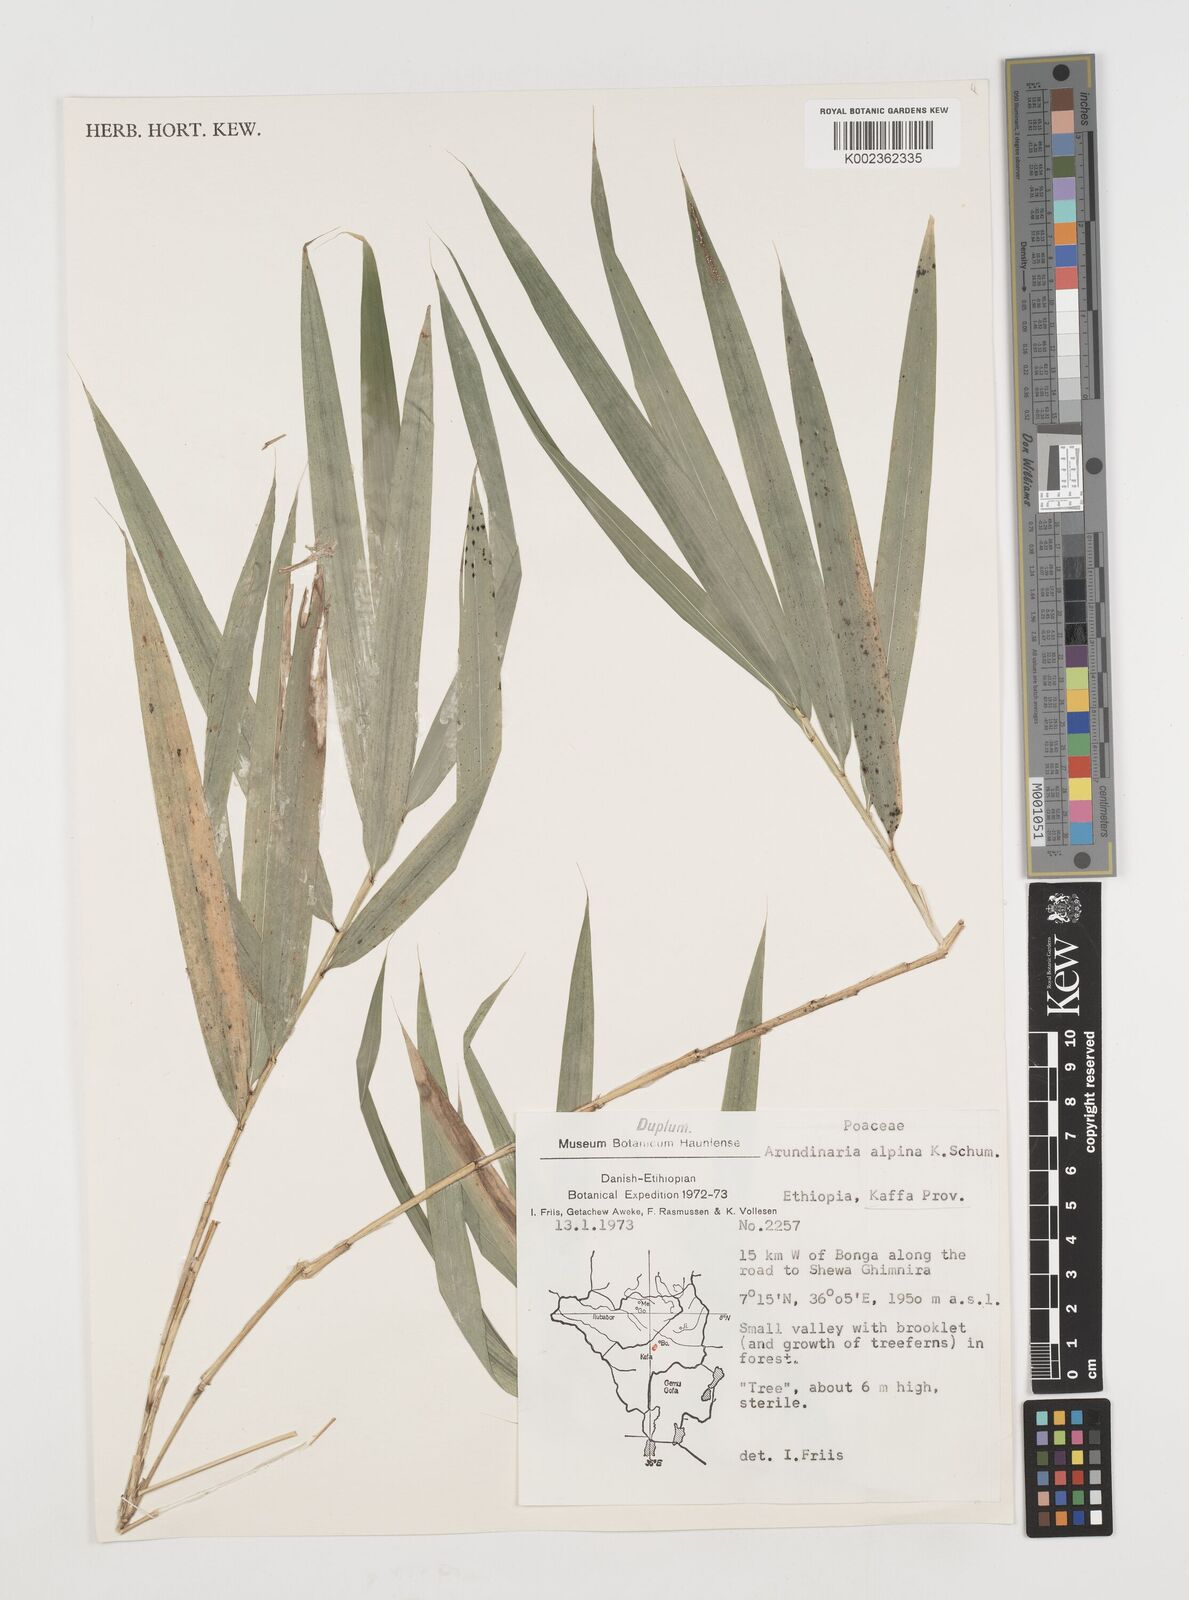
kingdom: Plantae
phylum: Tracheophyta
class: Liliopsida
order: Poales
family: Poaceae
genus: Oldeania
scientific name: Oldeania alpina
